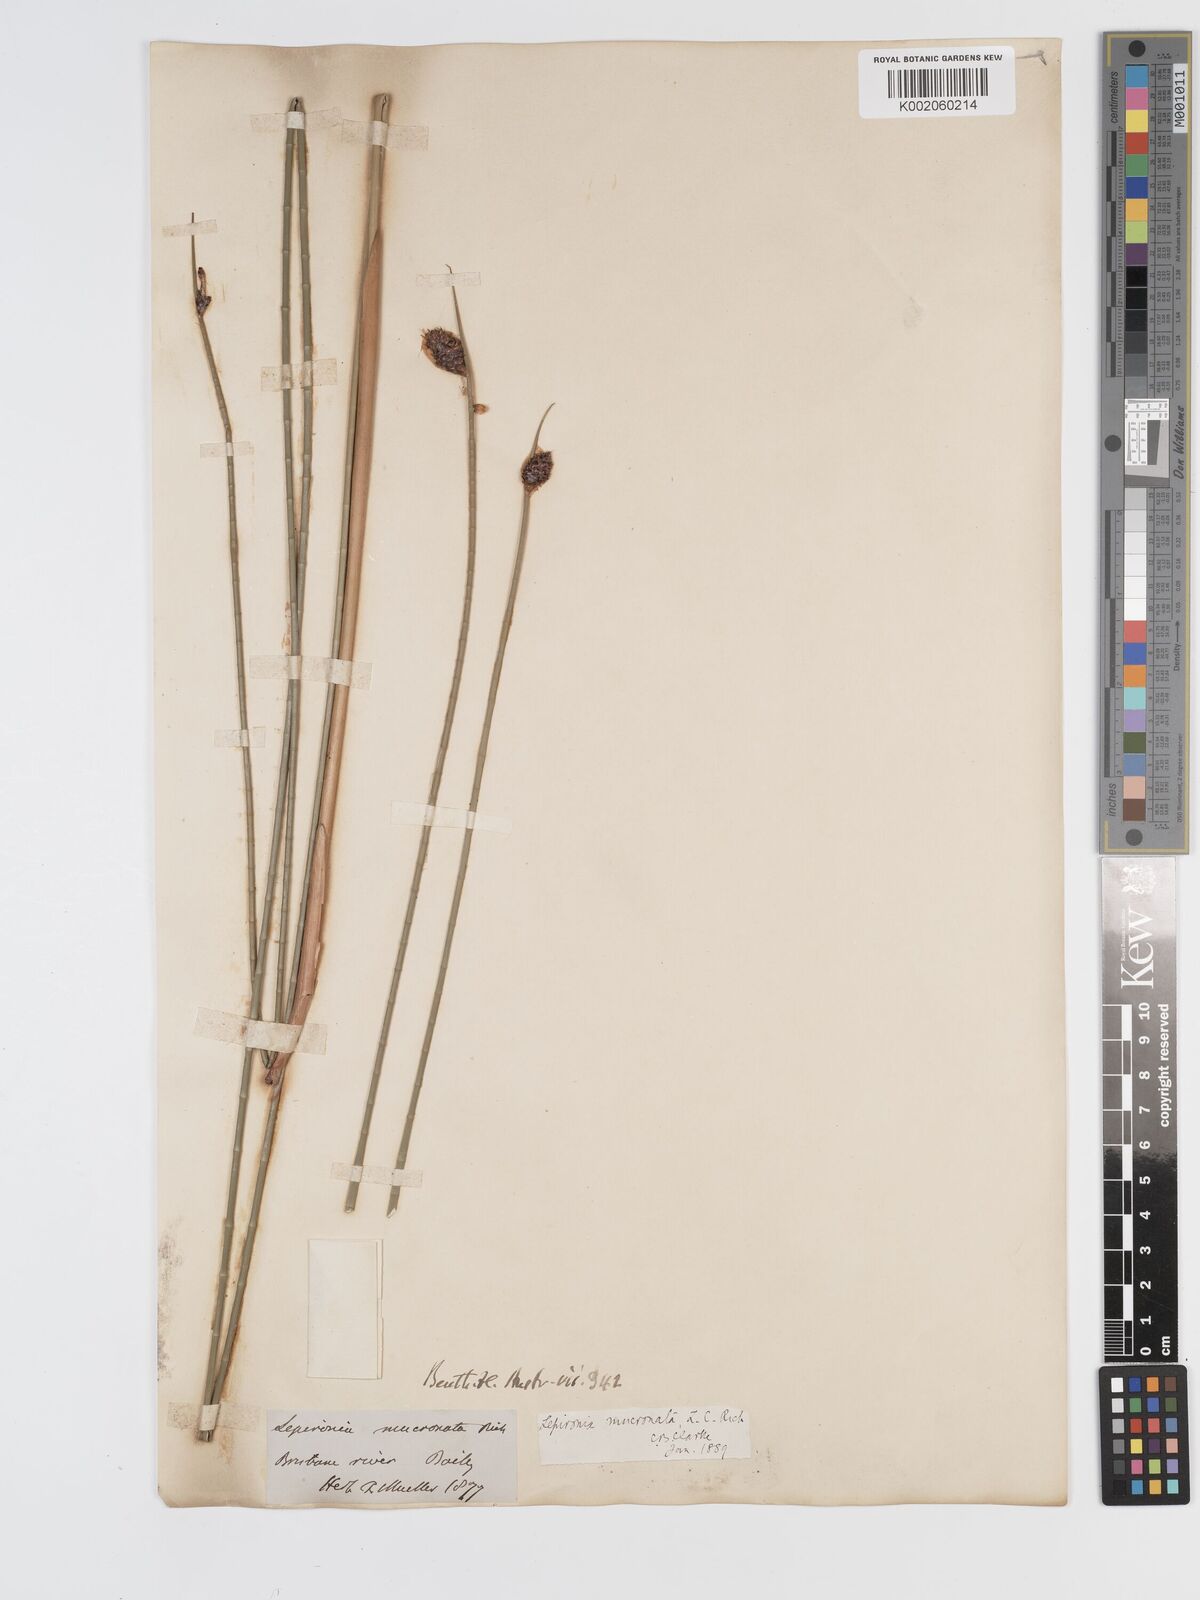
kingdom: Plantae
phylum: Tracheophyta
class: Liliopsida
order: Poales
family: Cyperaceae
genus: Lepironia
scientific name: Lepironia articulata
